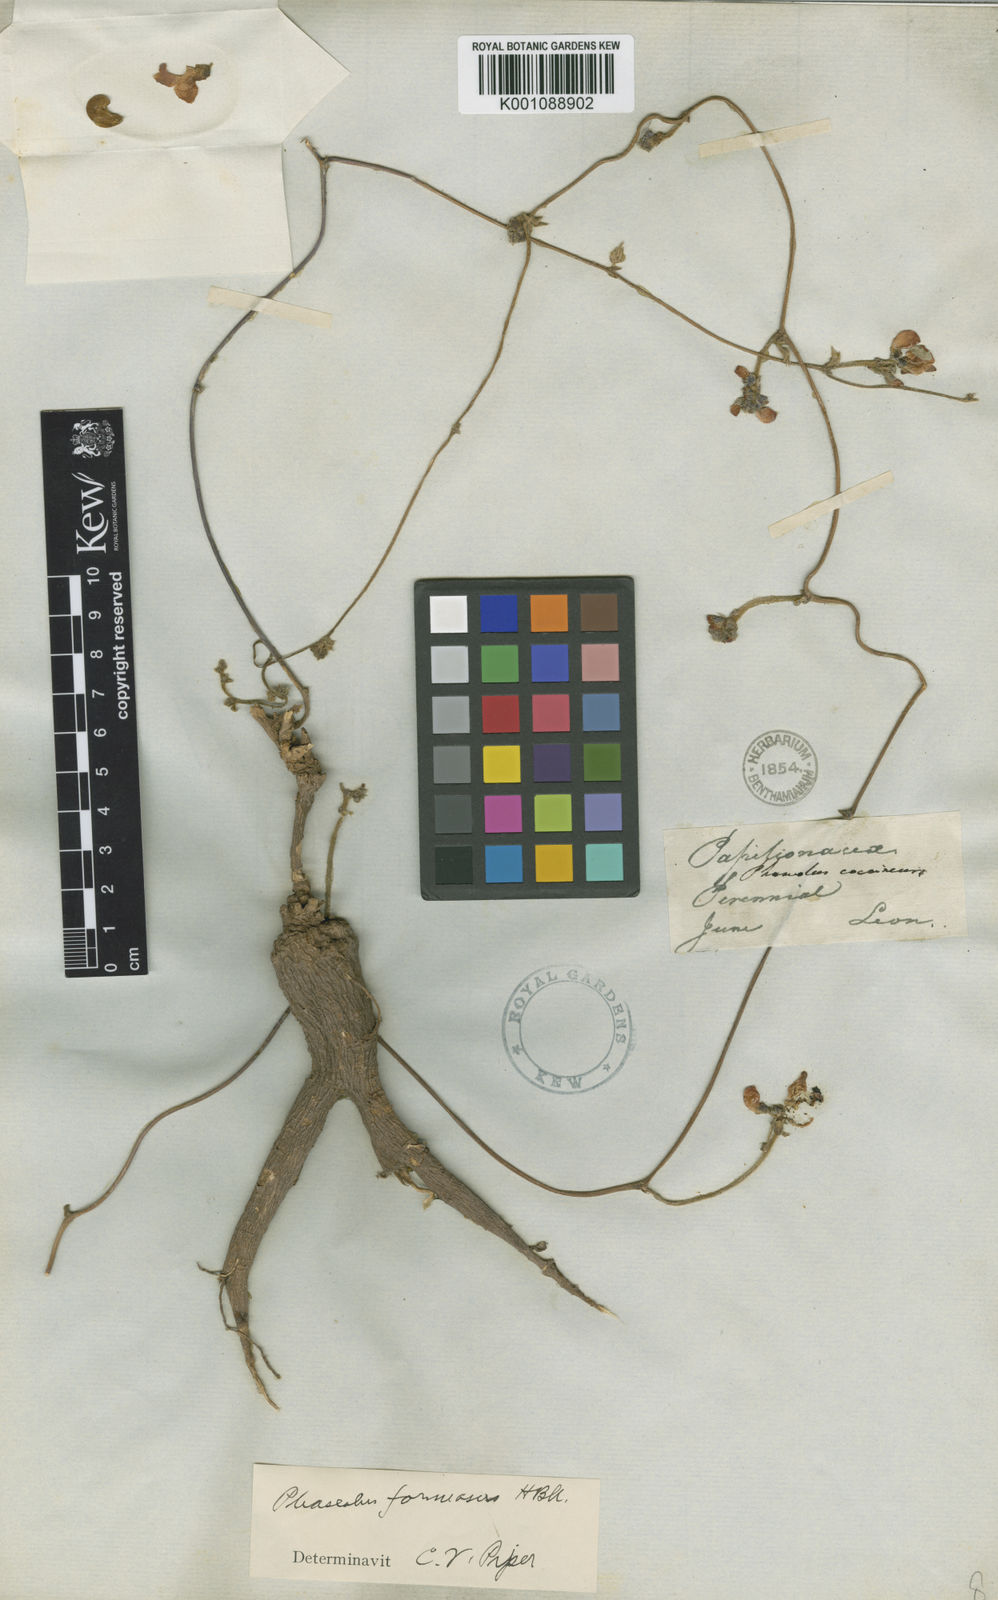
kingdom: Plantae
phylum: Tracheophyta
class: Magnoliopsida
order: Fabales
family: Fabaceae
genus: Phaseolus
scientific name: Phaseolus coccineus
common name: Runner bean
